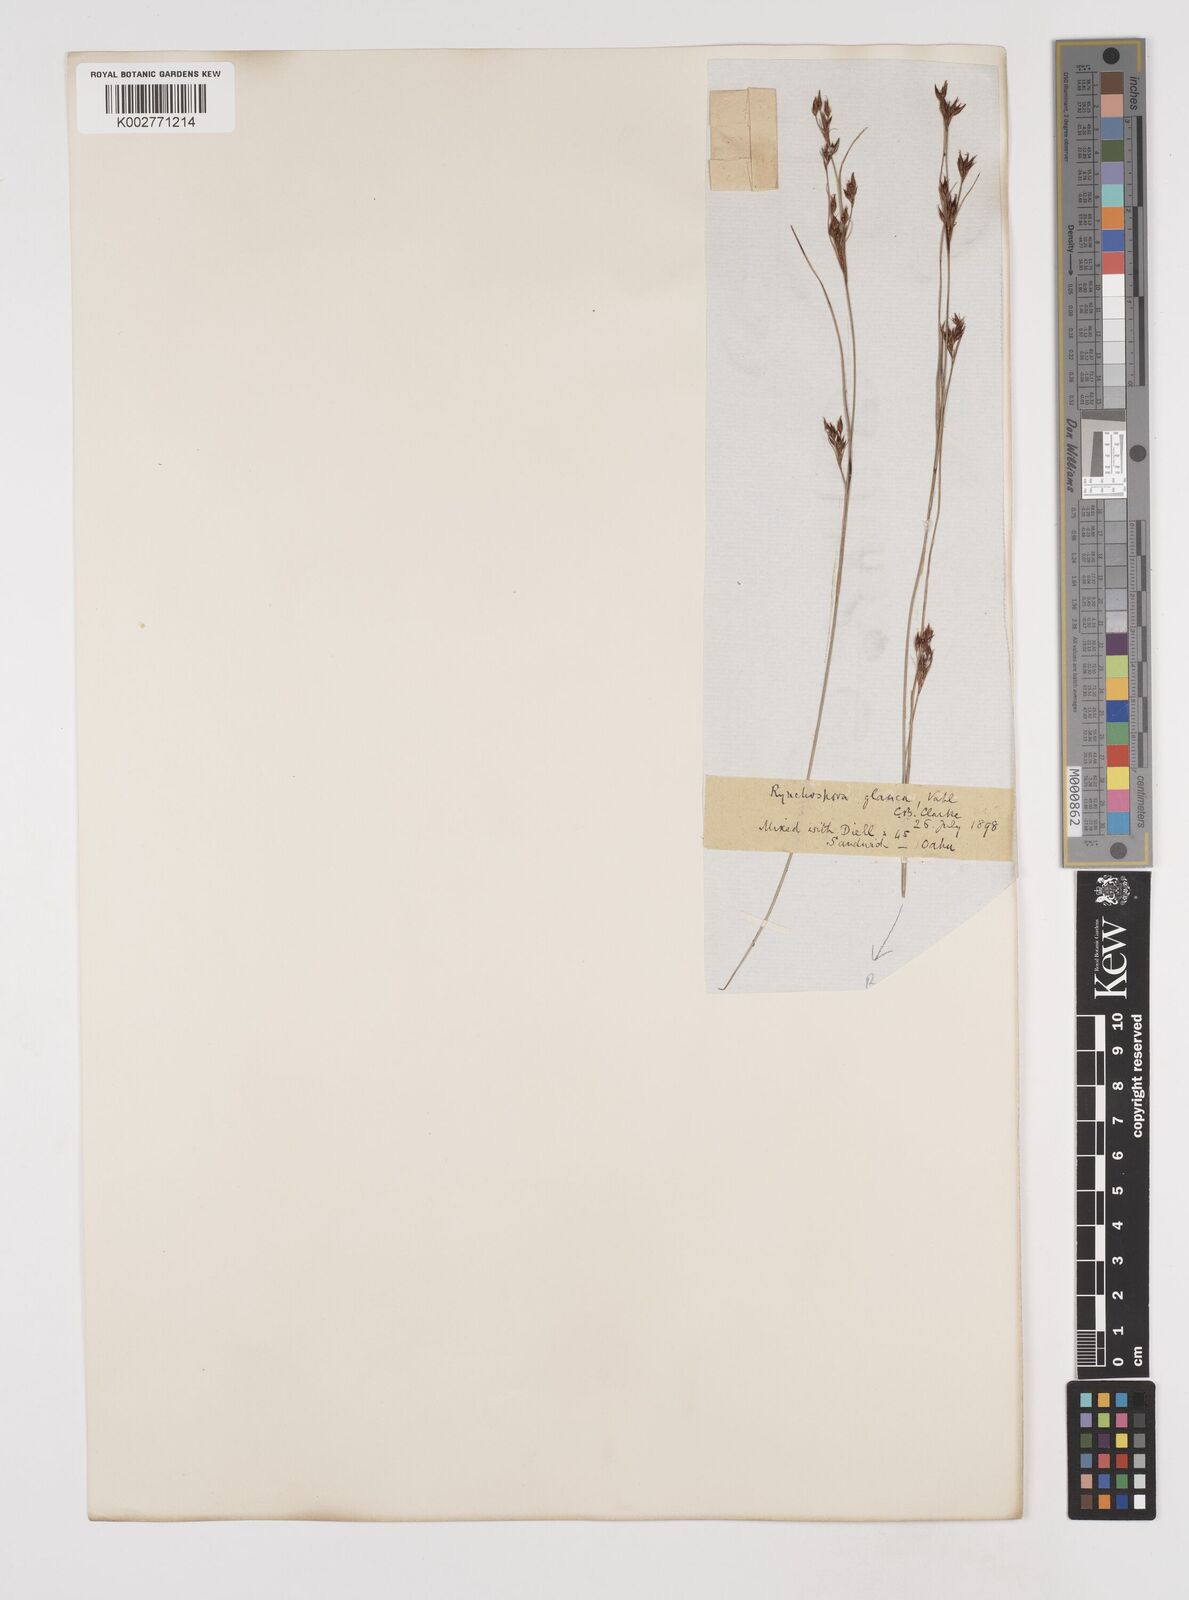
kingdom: Plantae
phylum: Tracheophyta
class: Liliopsida
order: Poales
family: Cyperaceae
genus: Rhynchospora
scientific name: Rhynchospora rugosa
